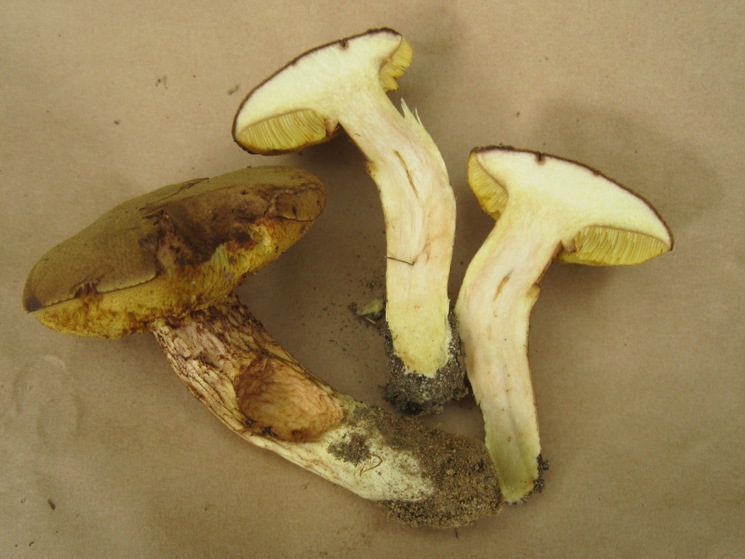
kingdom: Fungi
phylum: Basidiomycota
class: Agaricomycetes
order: Boletales
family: Boletaceae
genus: Xerocomus
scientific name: Xerocomus ferrugineus
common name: vaskeskinds-rørhat
